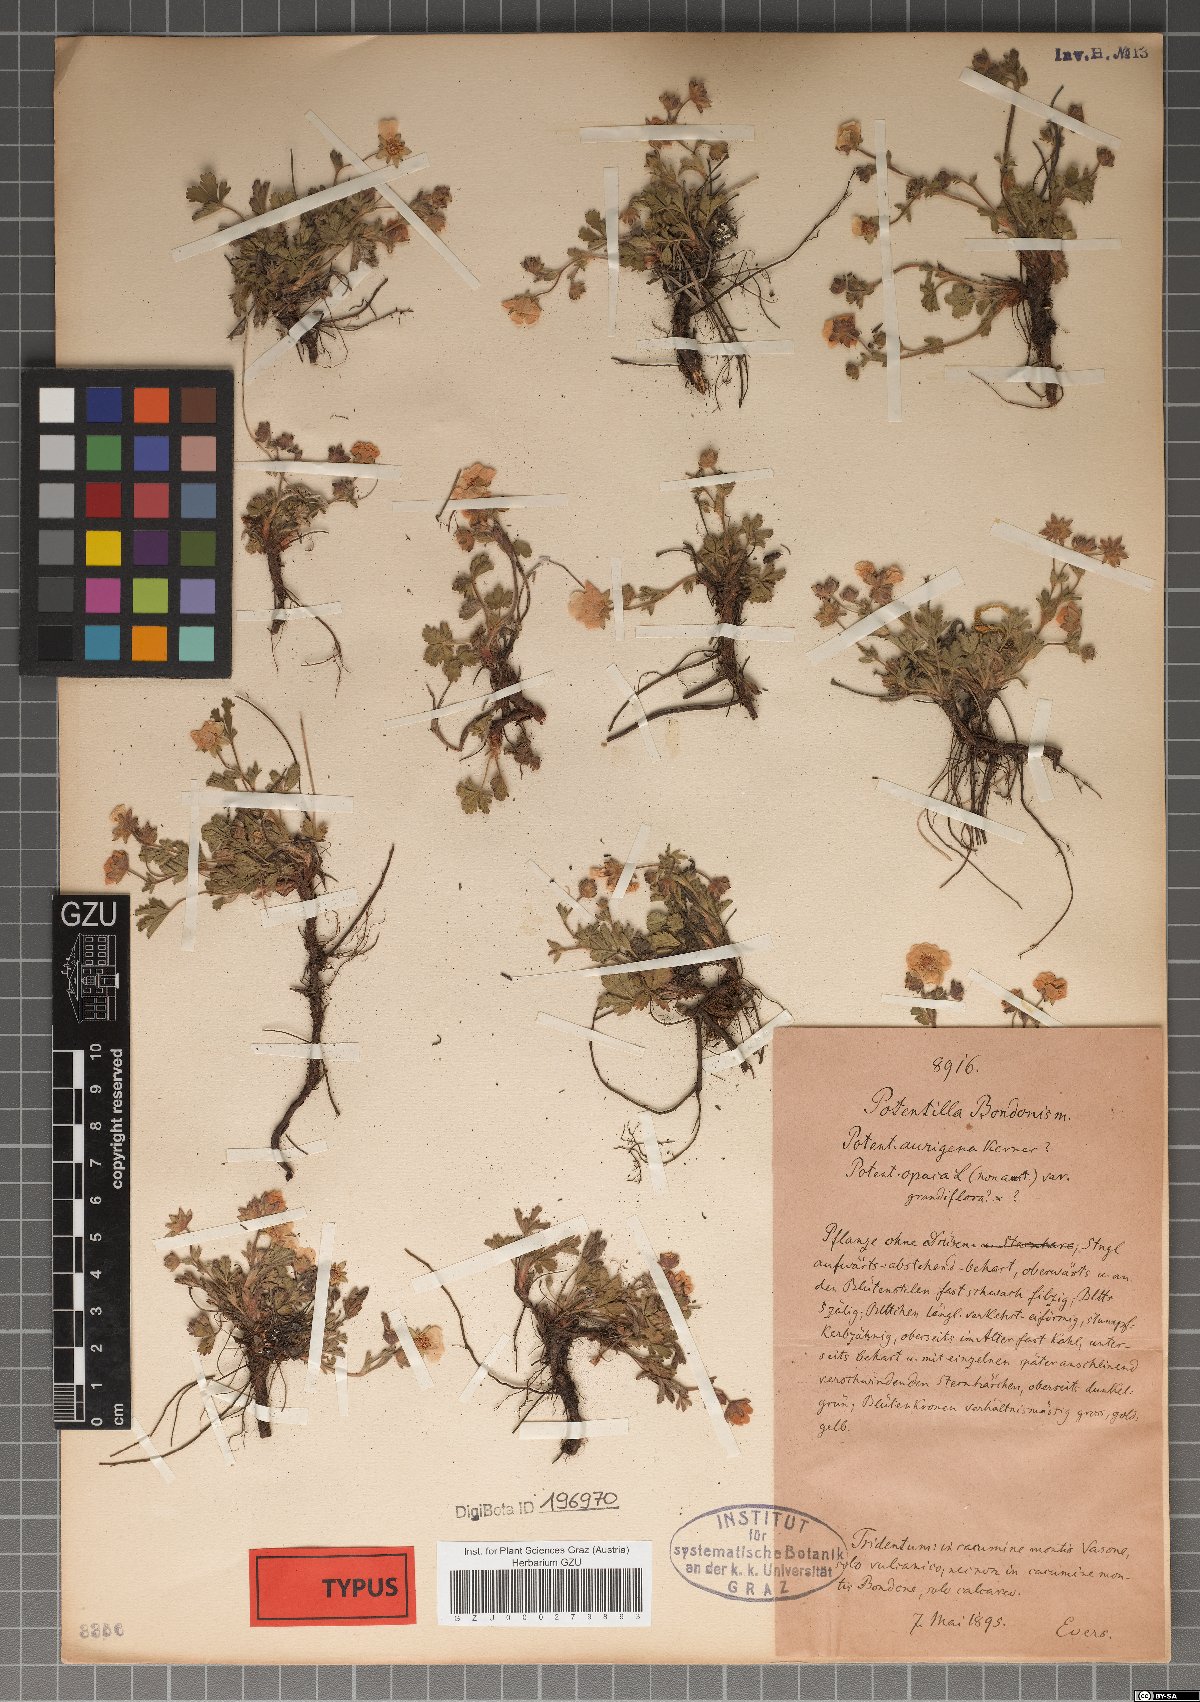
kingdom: Plantae
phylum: Tracheophyta
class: Magnoliopsida
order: Rosales
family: Rosaceae
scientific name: Rosaceae
